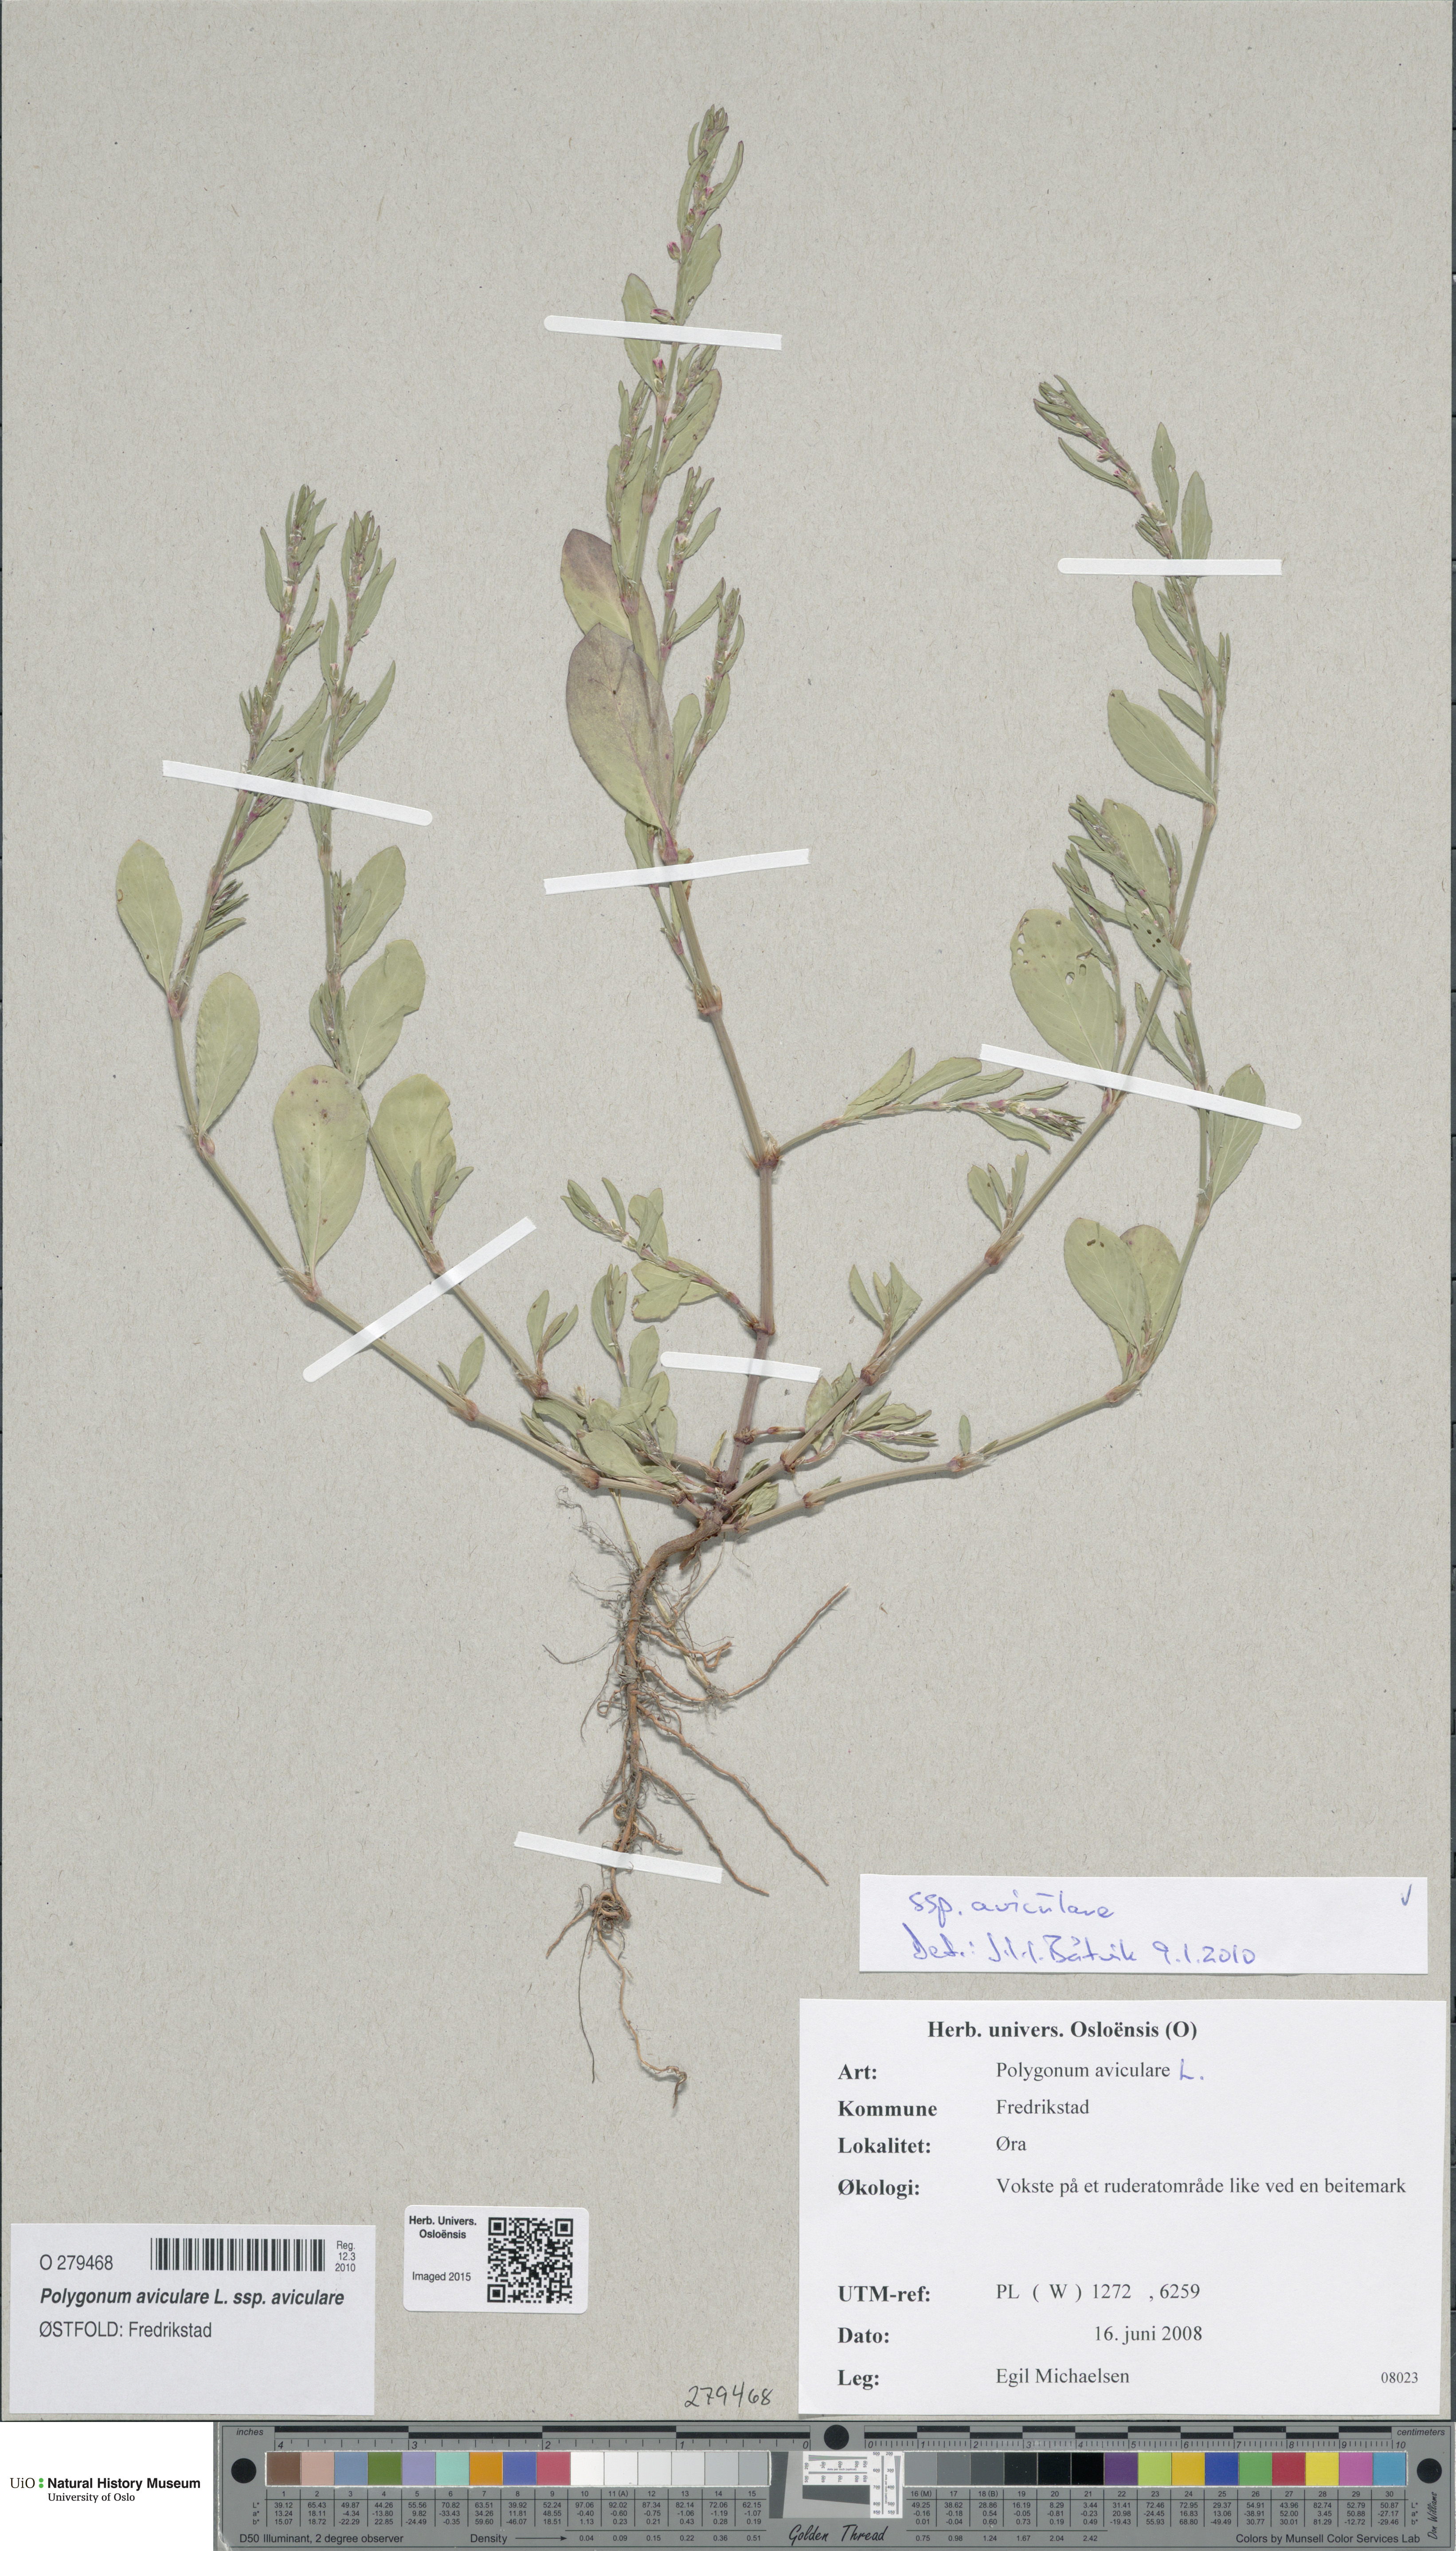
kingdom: Plantae
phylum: Tracheophyta
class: Magnoliopsida
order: Caryophyllales
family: Polygonaceae
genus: Polygonum
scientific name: Polygonum aviculare
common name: Prostrate knotweed
